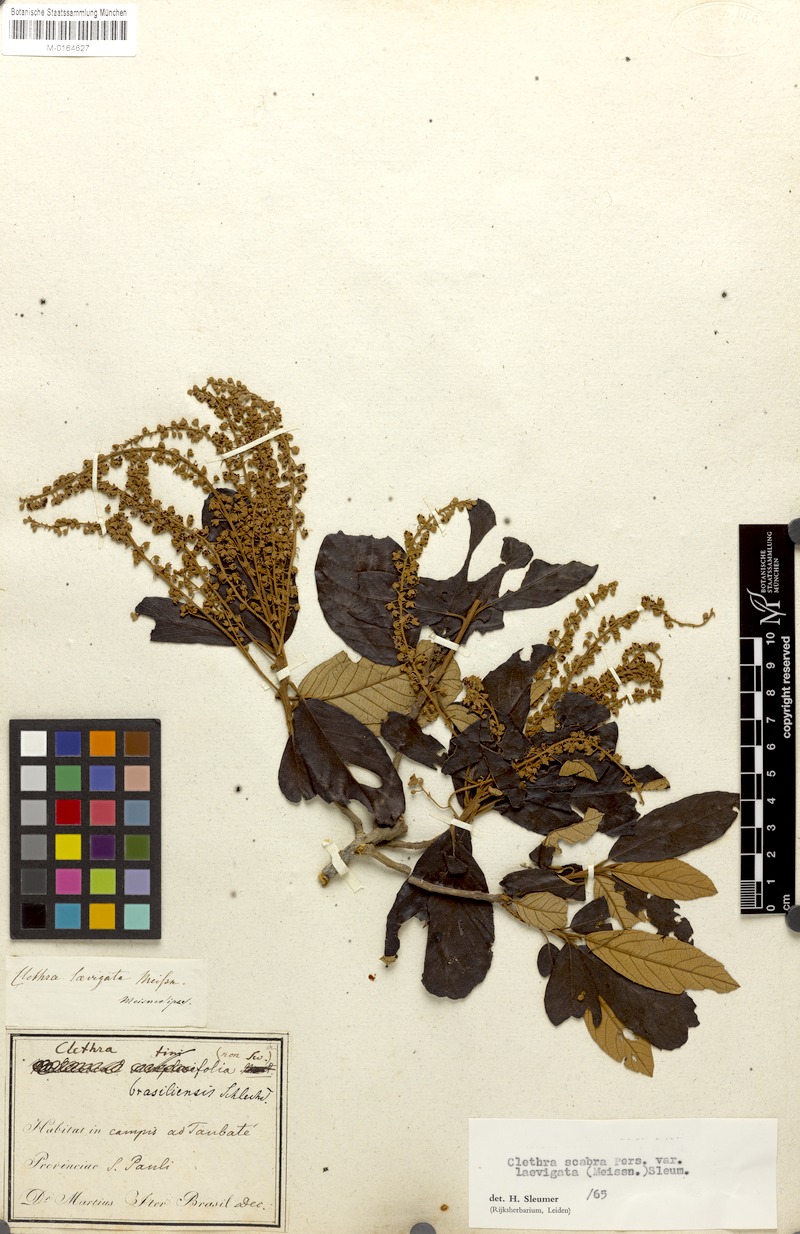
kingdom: Plantae
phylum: Tracheophyta
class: Magnoliopsida
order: Ericales
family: Clethraceae
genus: Clethra
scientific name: Clethra scabra
